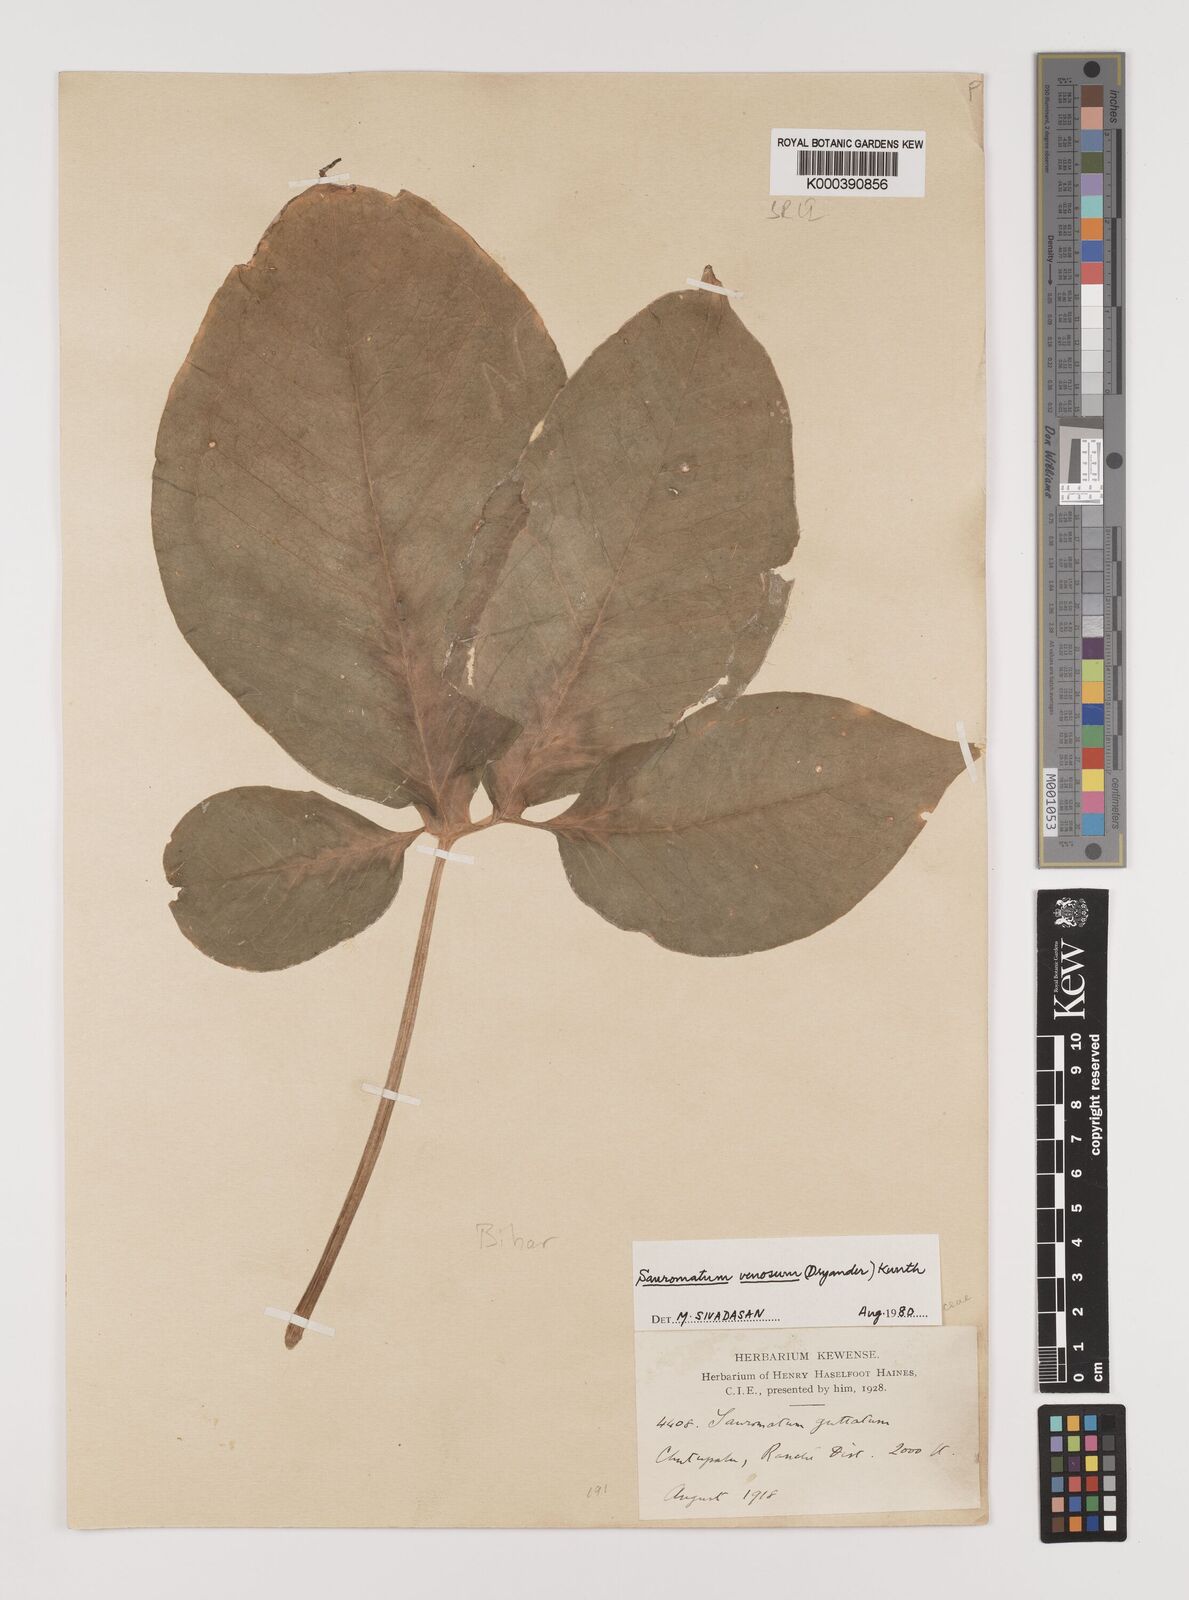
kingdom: Plantae
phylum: Tracheophyta
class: Liliopsida
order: Alismatales
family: Araceae
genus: Sauromatum
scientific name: Sauromatum venosum
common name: Voodoo lily
